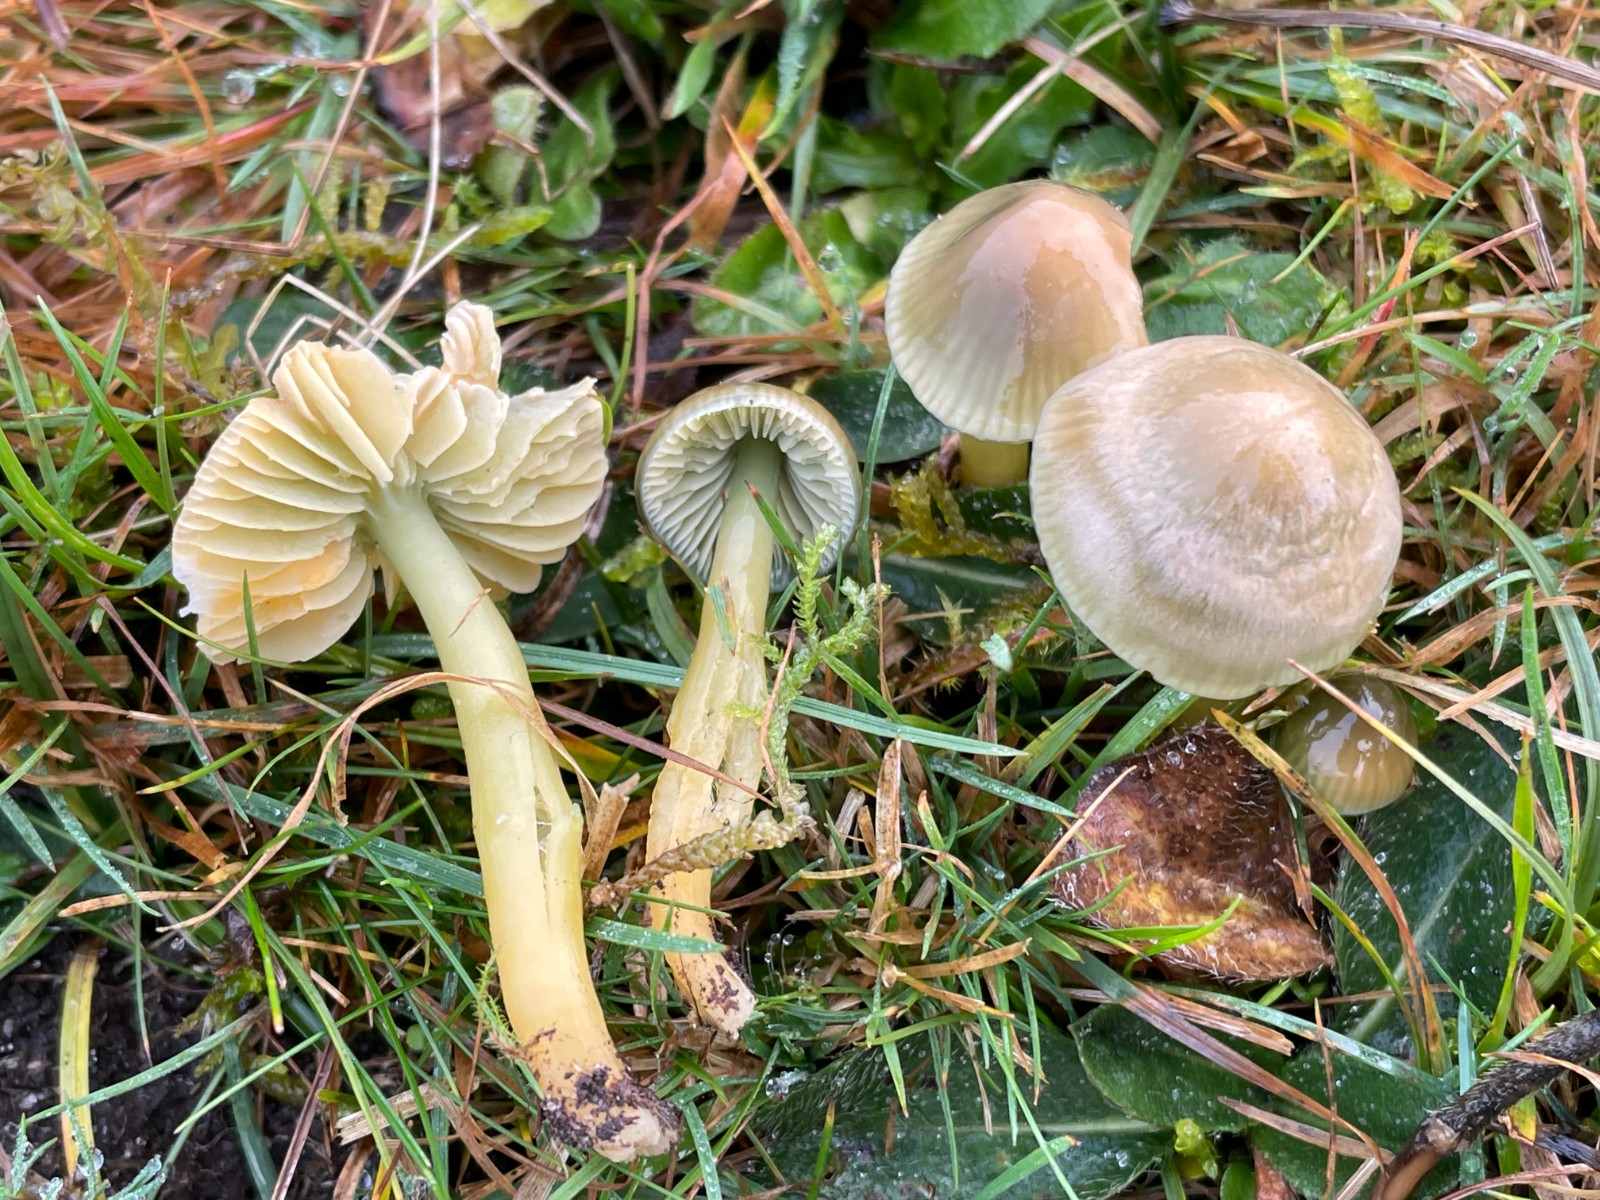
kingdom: Fungi
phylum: Basidiomycota
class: Agaricomycetes
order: Agaricales
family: Hygrophoraceae
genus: Gliophorus
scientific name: Gliophorus psittacinus
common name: papegøje-vokshat
